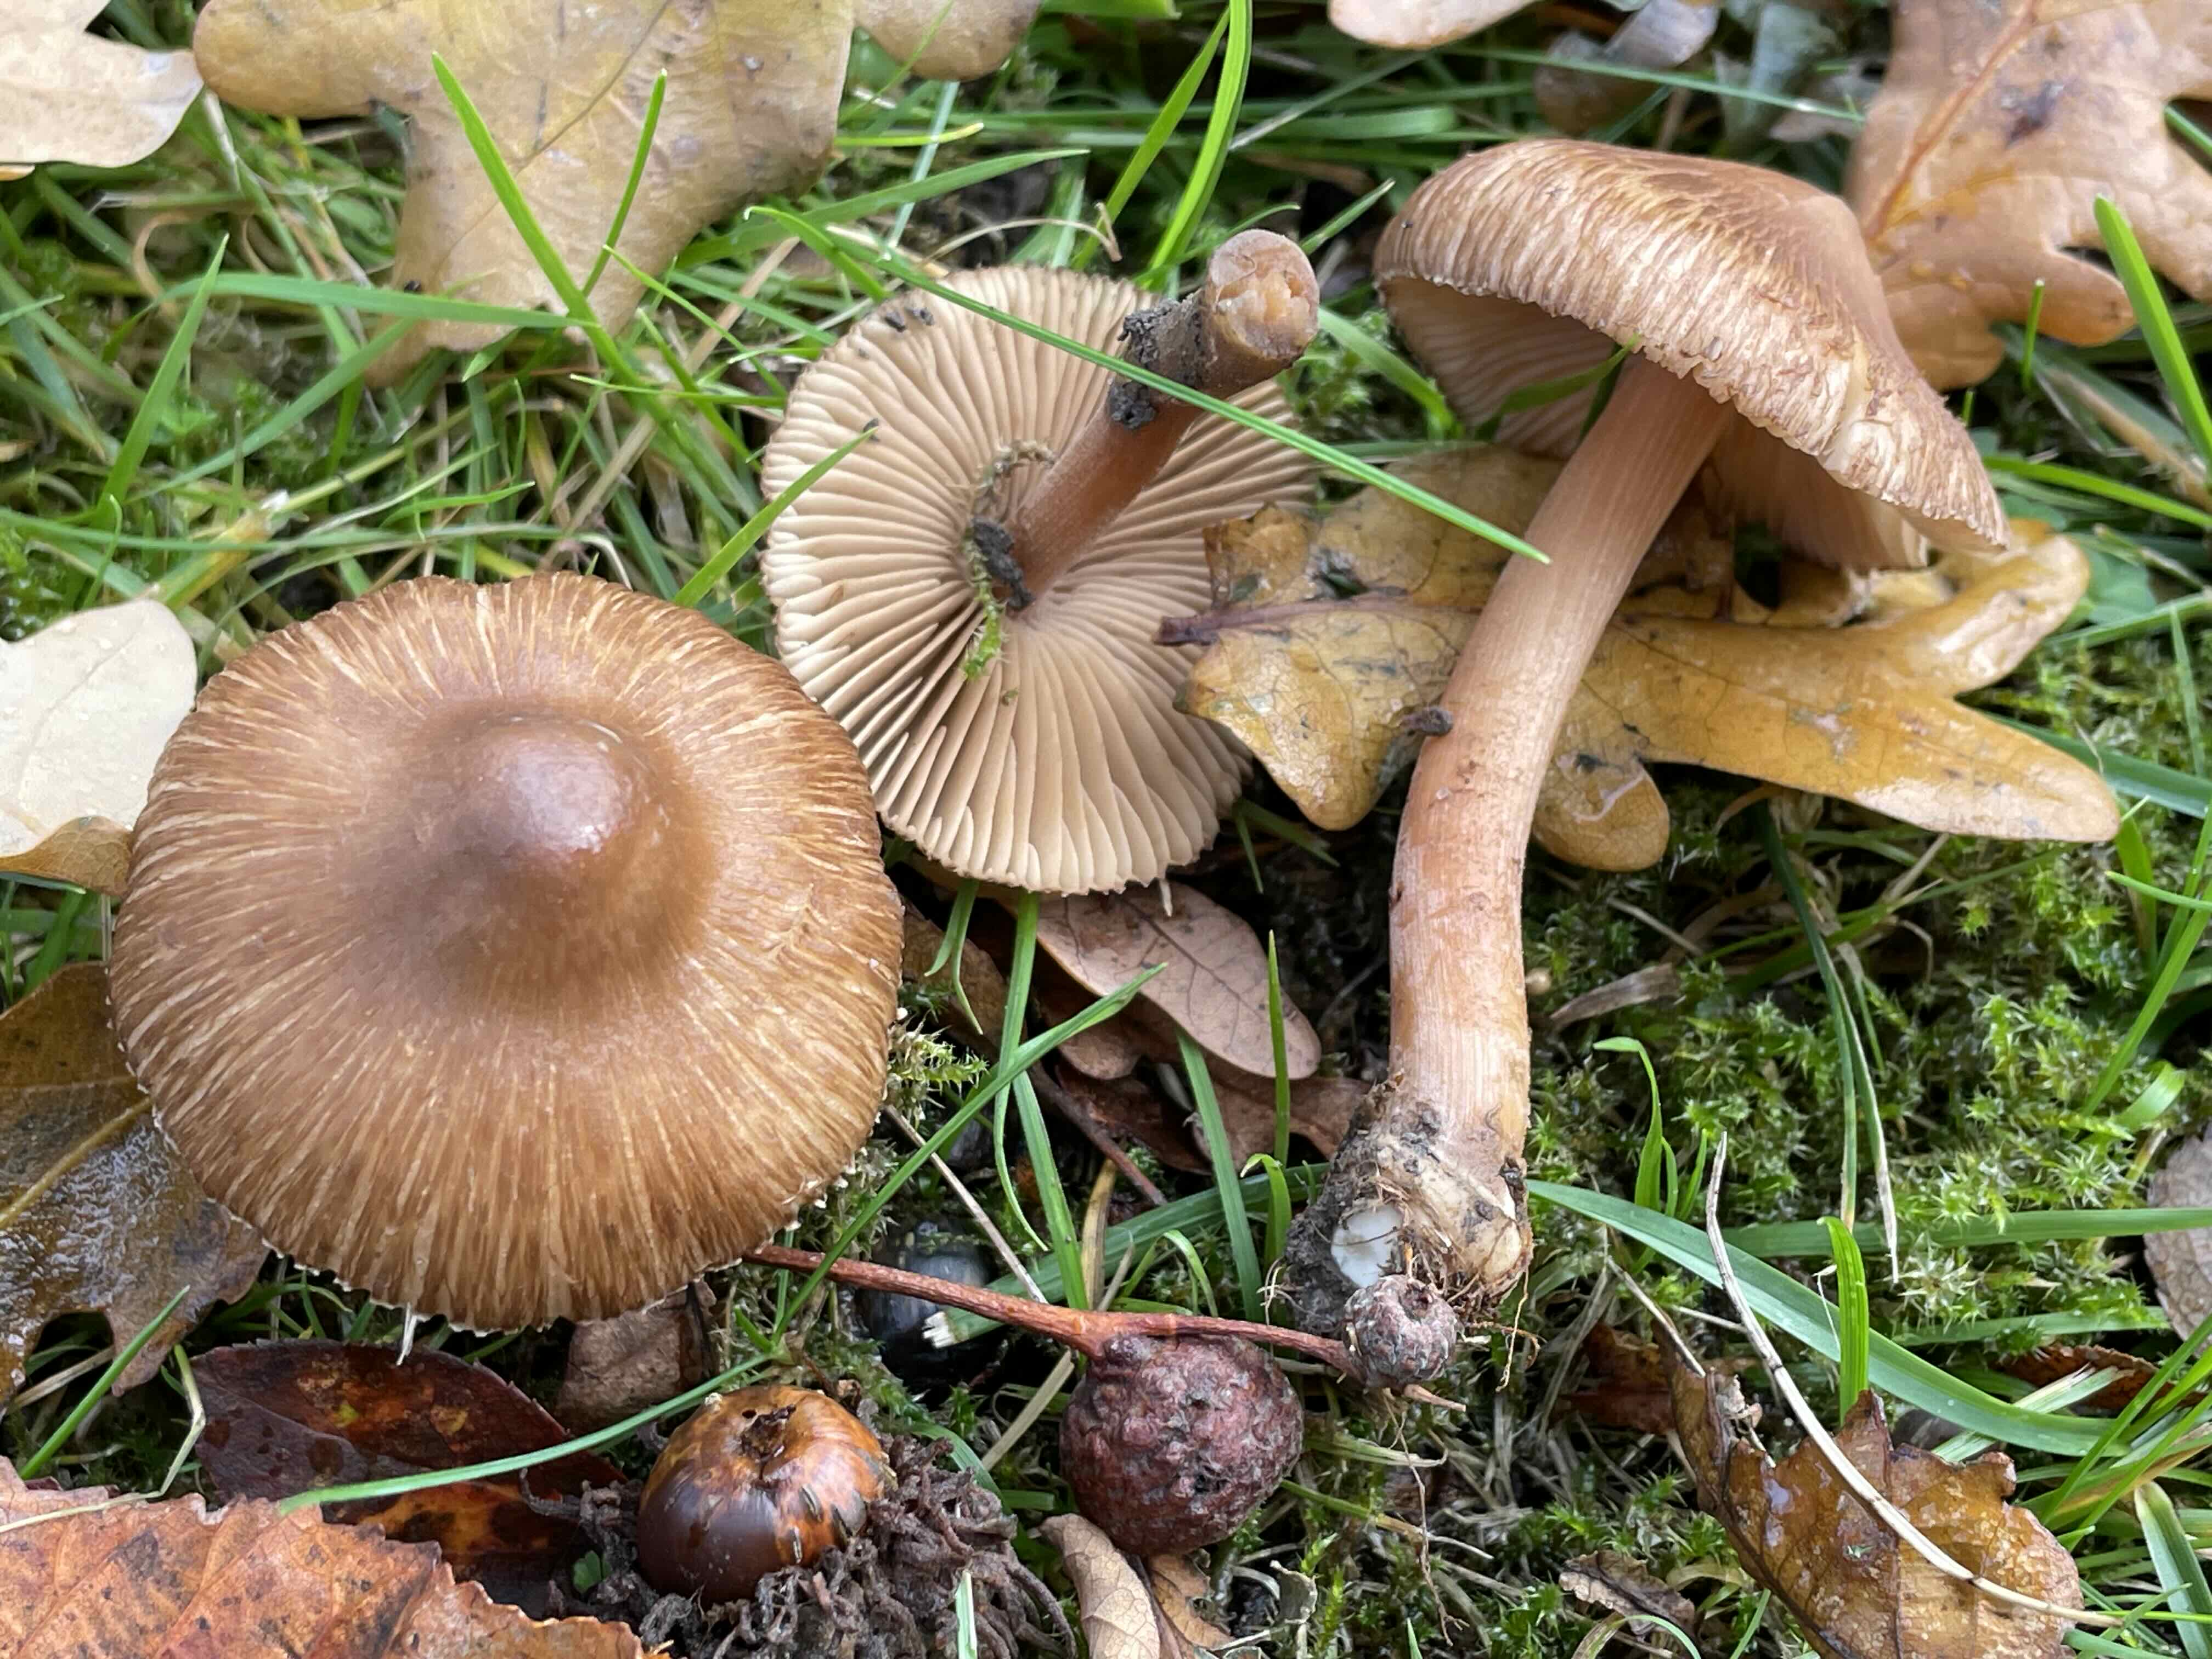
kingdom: Fungi
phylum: Basidiomycota
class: Agaricomycetes
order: Agaricales
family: Inocybaceae
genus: Inocybe
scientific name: Inocybe
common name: trævlhat
